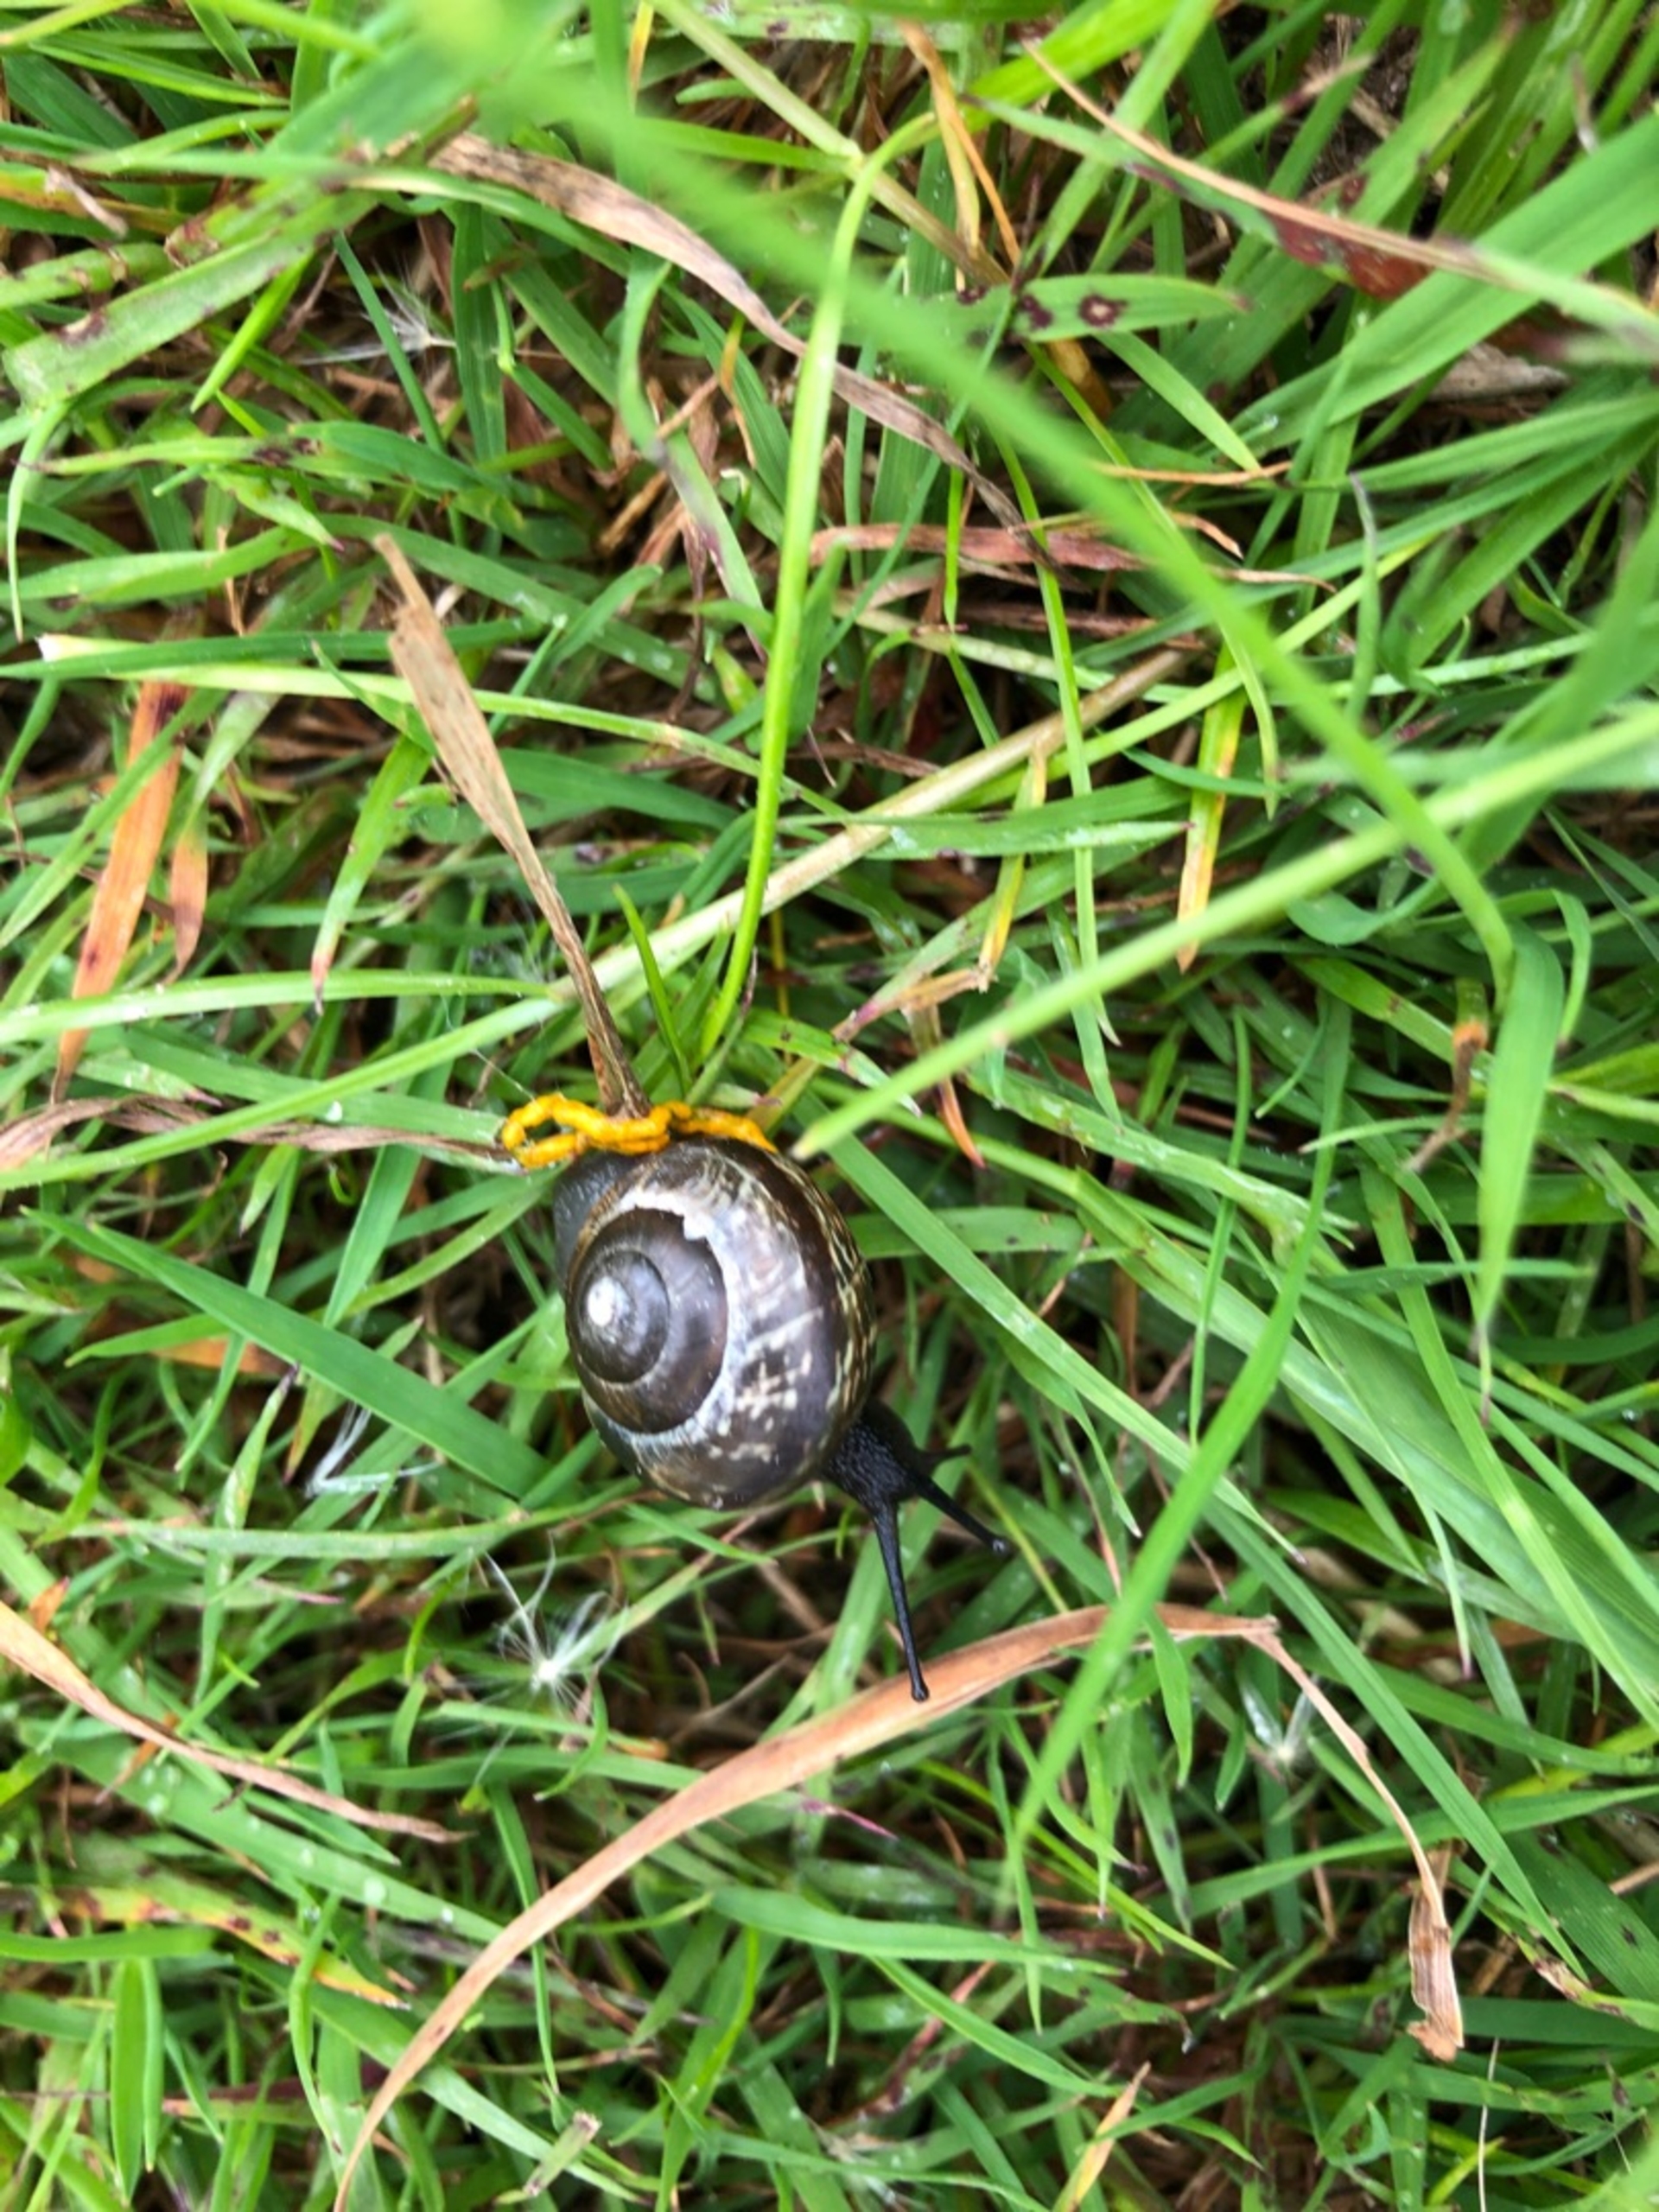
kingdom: Animalia
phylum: Mollusca
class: Gastropoda
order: Stylommatophora
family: Helicidae
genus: Arianta
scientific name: Arianta arbustorum
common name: Kratsnegl
